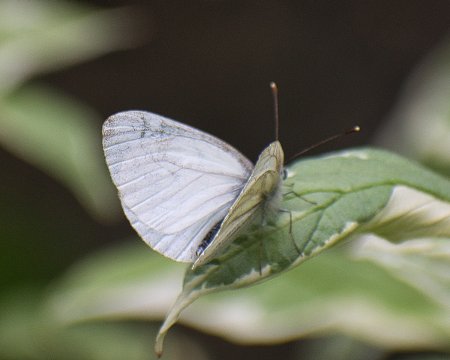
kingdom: Animalia
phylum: Arthropoda
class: Insecta
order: Lepidoptera
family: Pieridae
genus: Pieris
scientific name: Pieris marginalis
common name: Margined White
